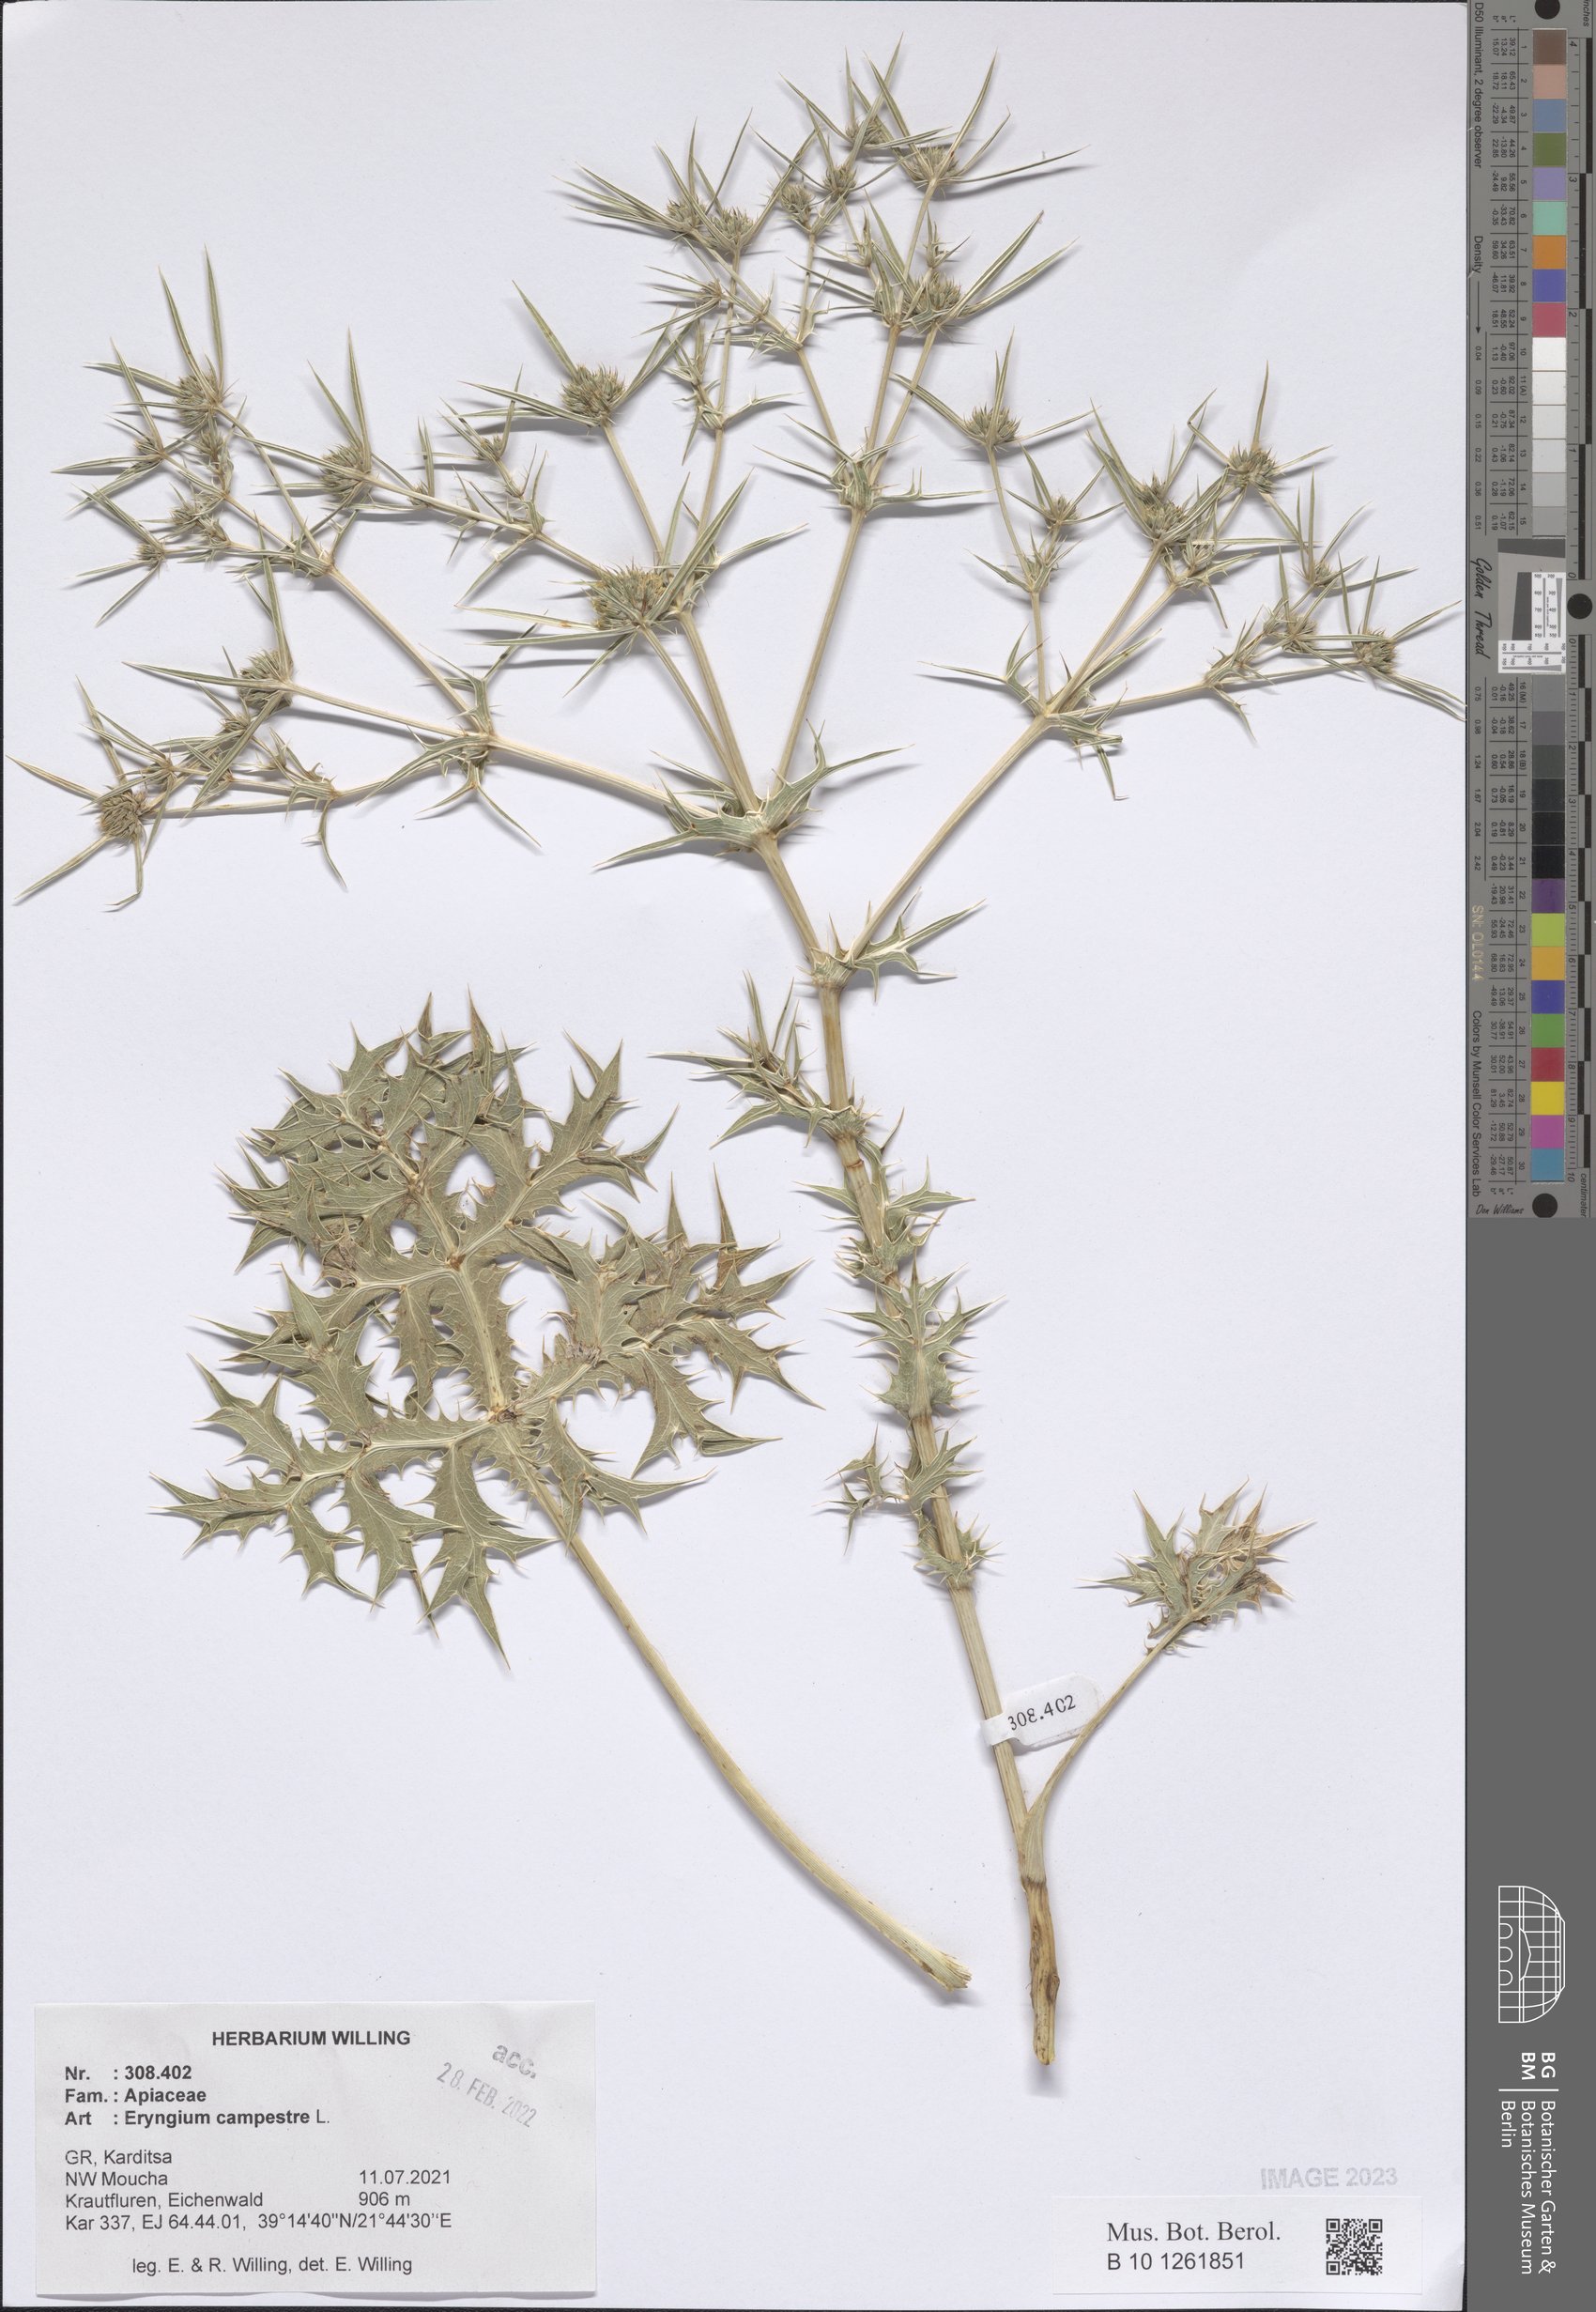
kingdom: Plantae
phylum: Tracheophyta
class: Magnoliopsida
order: Apiales
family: Apiaceae
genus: Eryngium
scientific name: Eryngium campestre
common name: Field eryngo
